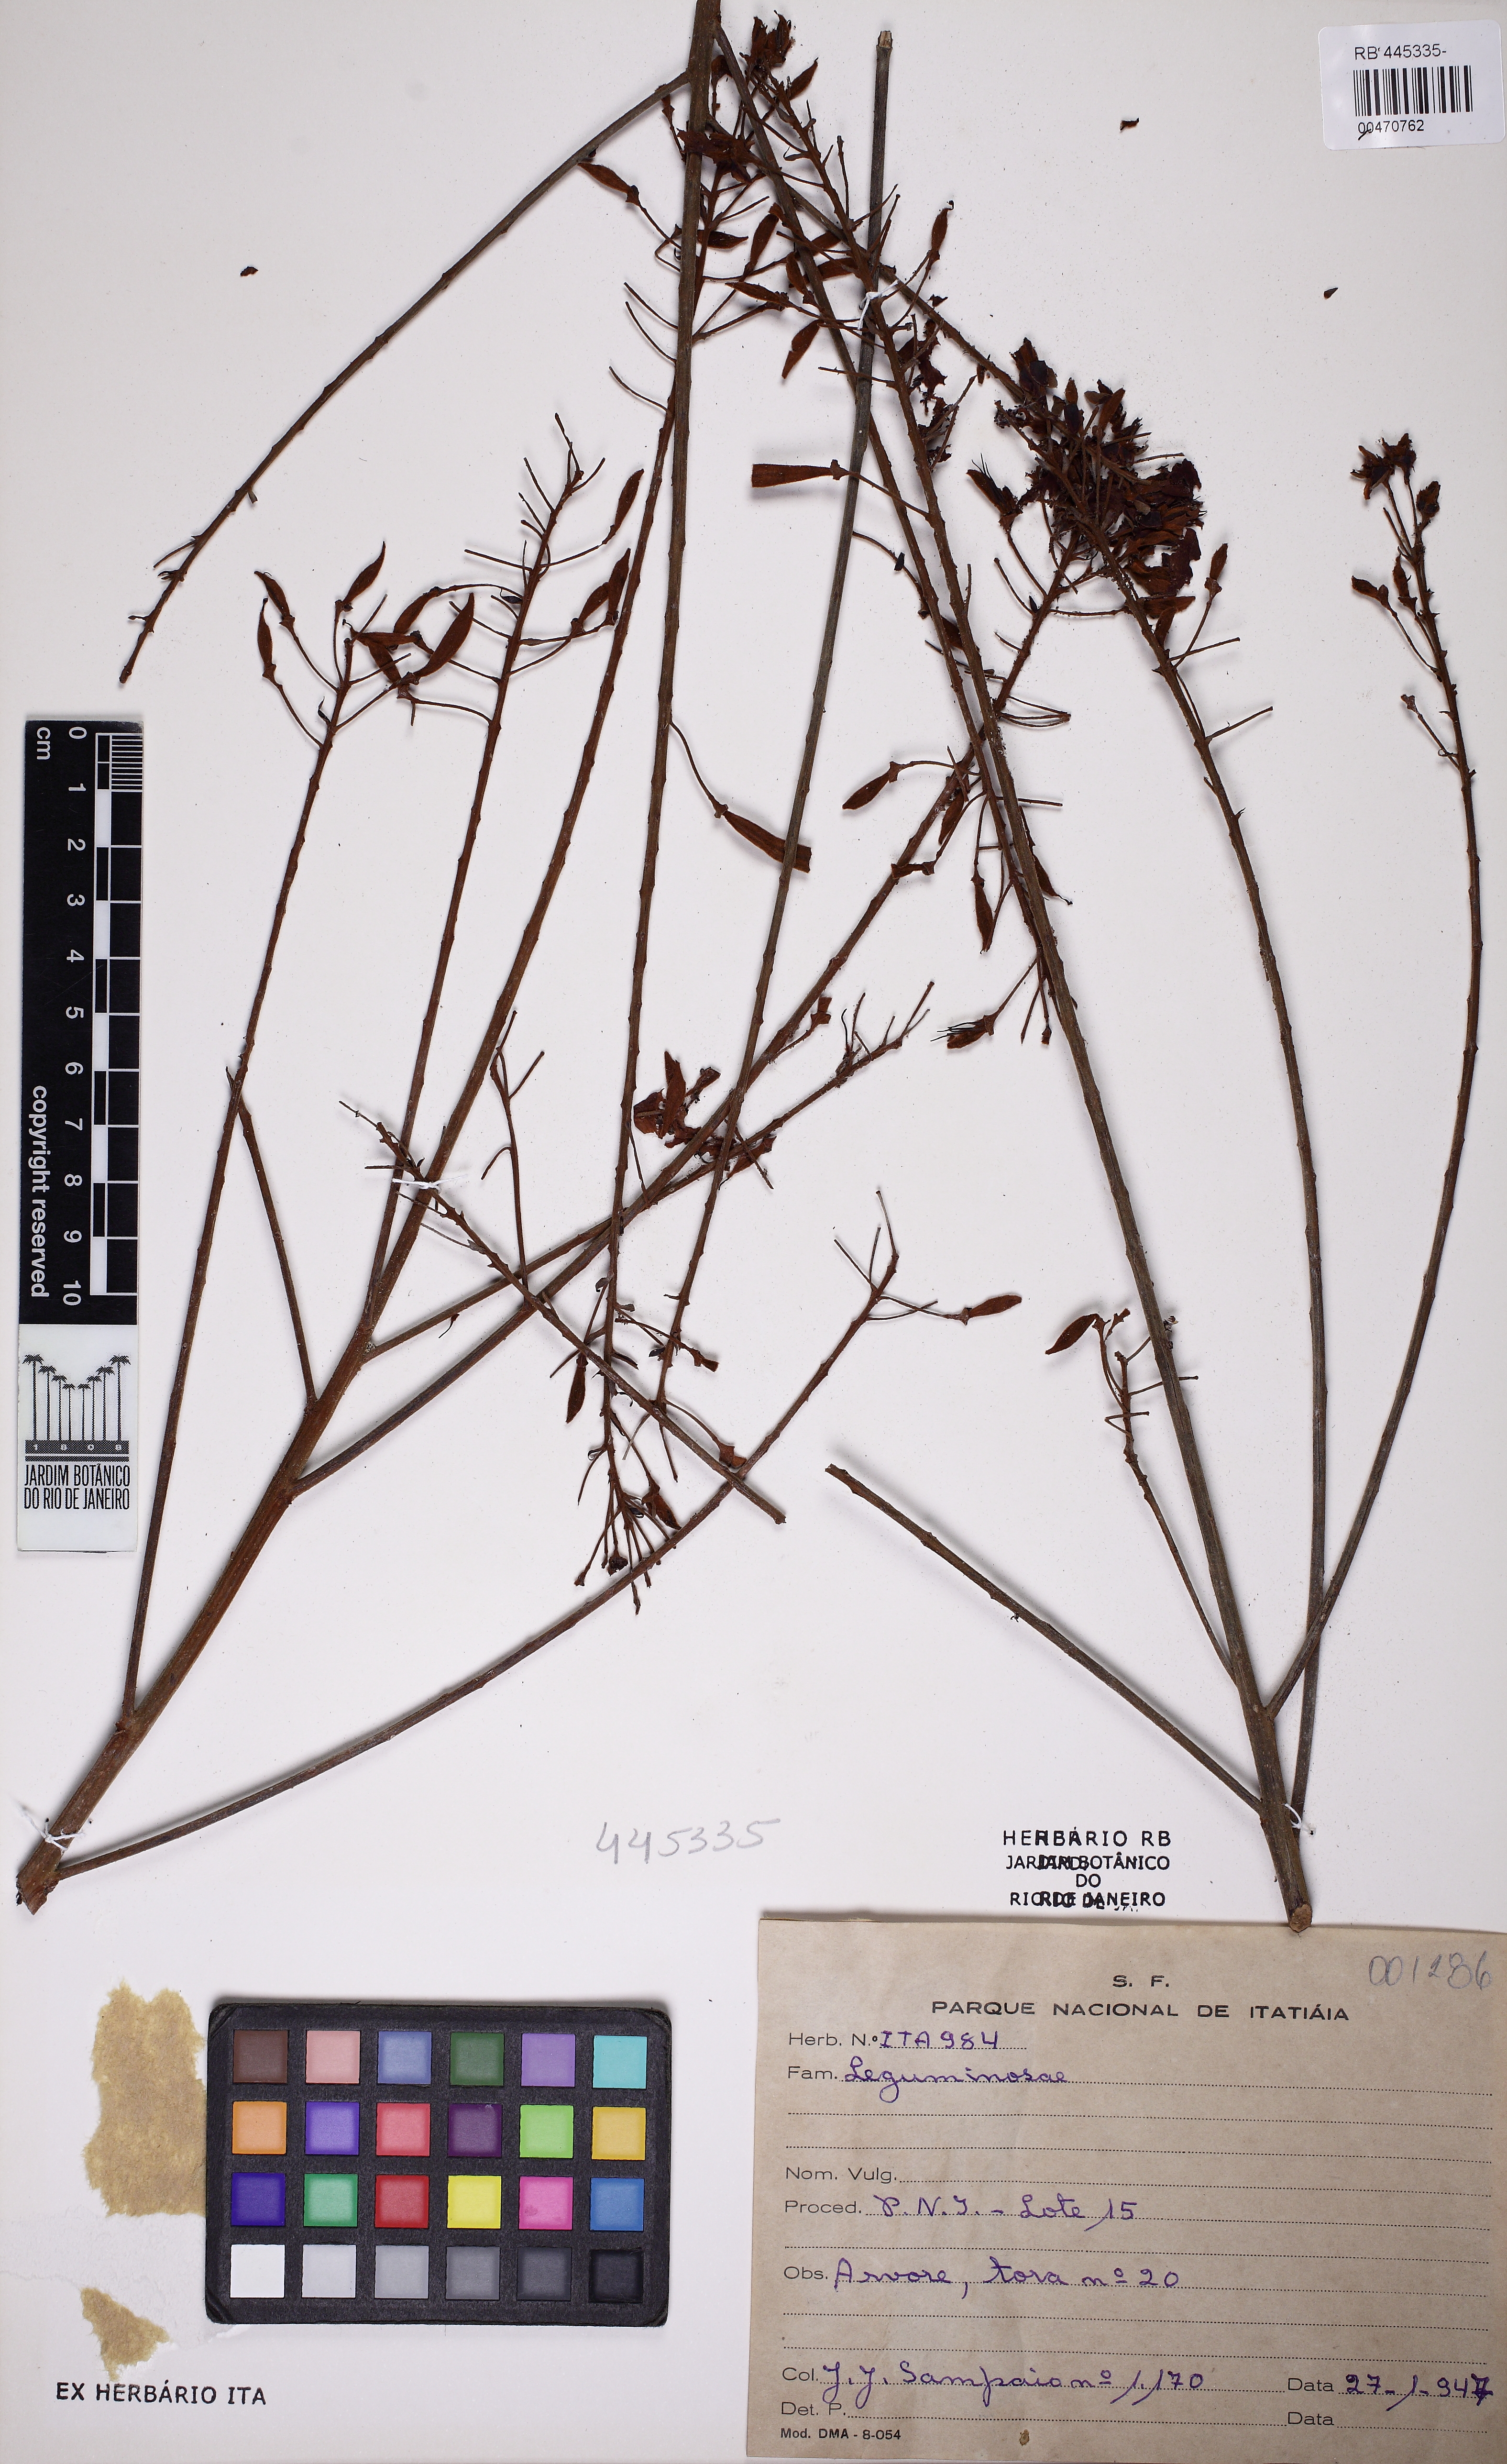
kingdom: Plantae
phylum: Tracheophyta
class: Magnoliopsida
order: Fabales
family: Fabaceae
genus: Peltophorum
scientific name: Peltophorum dubium
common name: Horsebush
